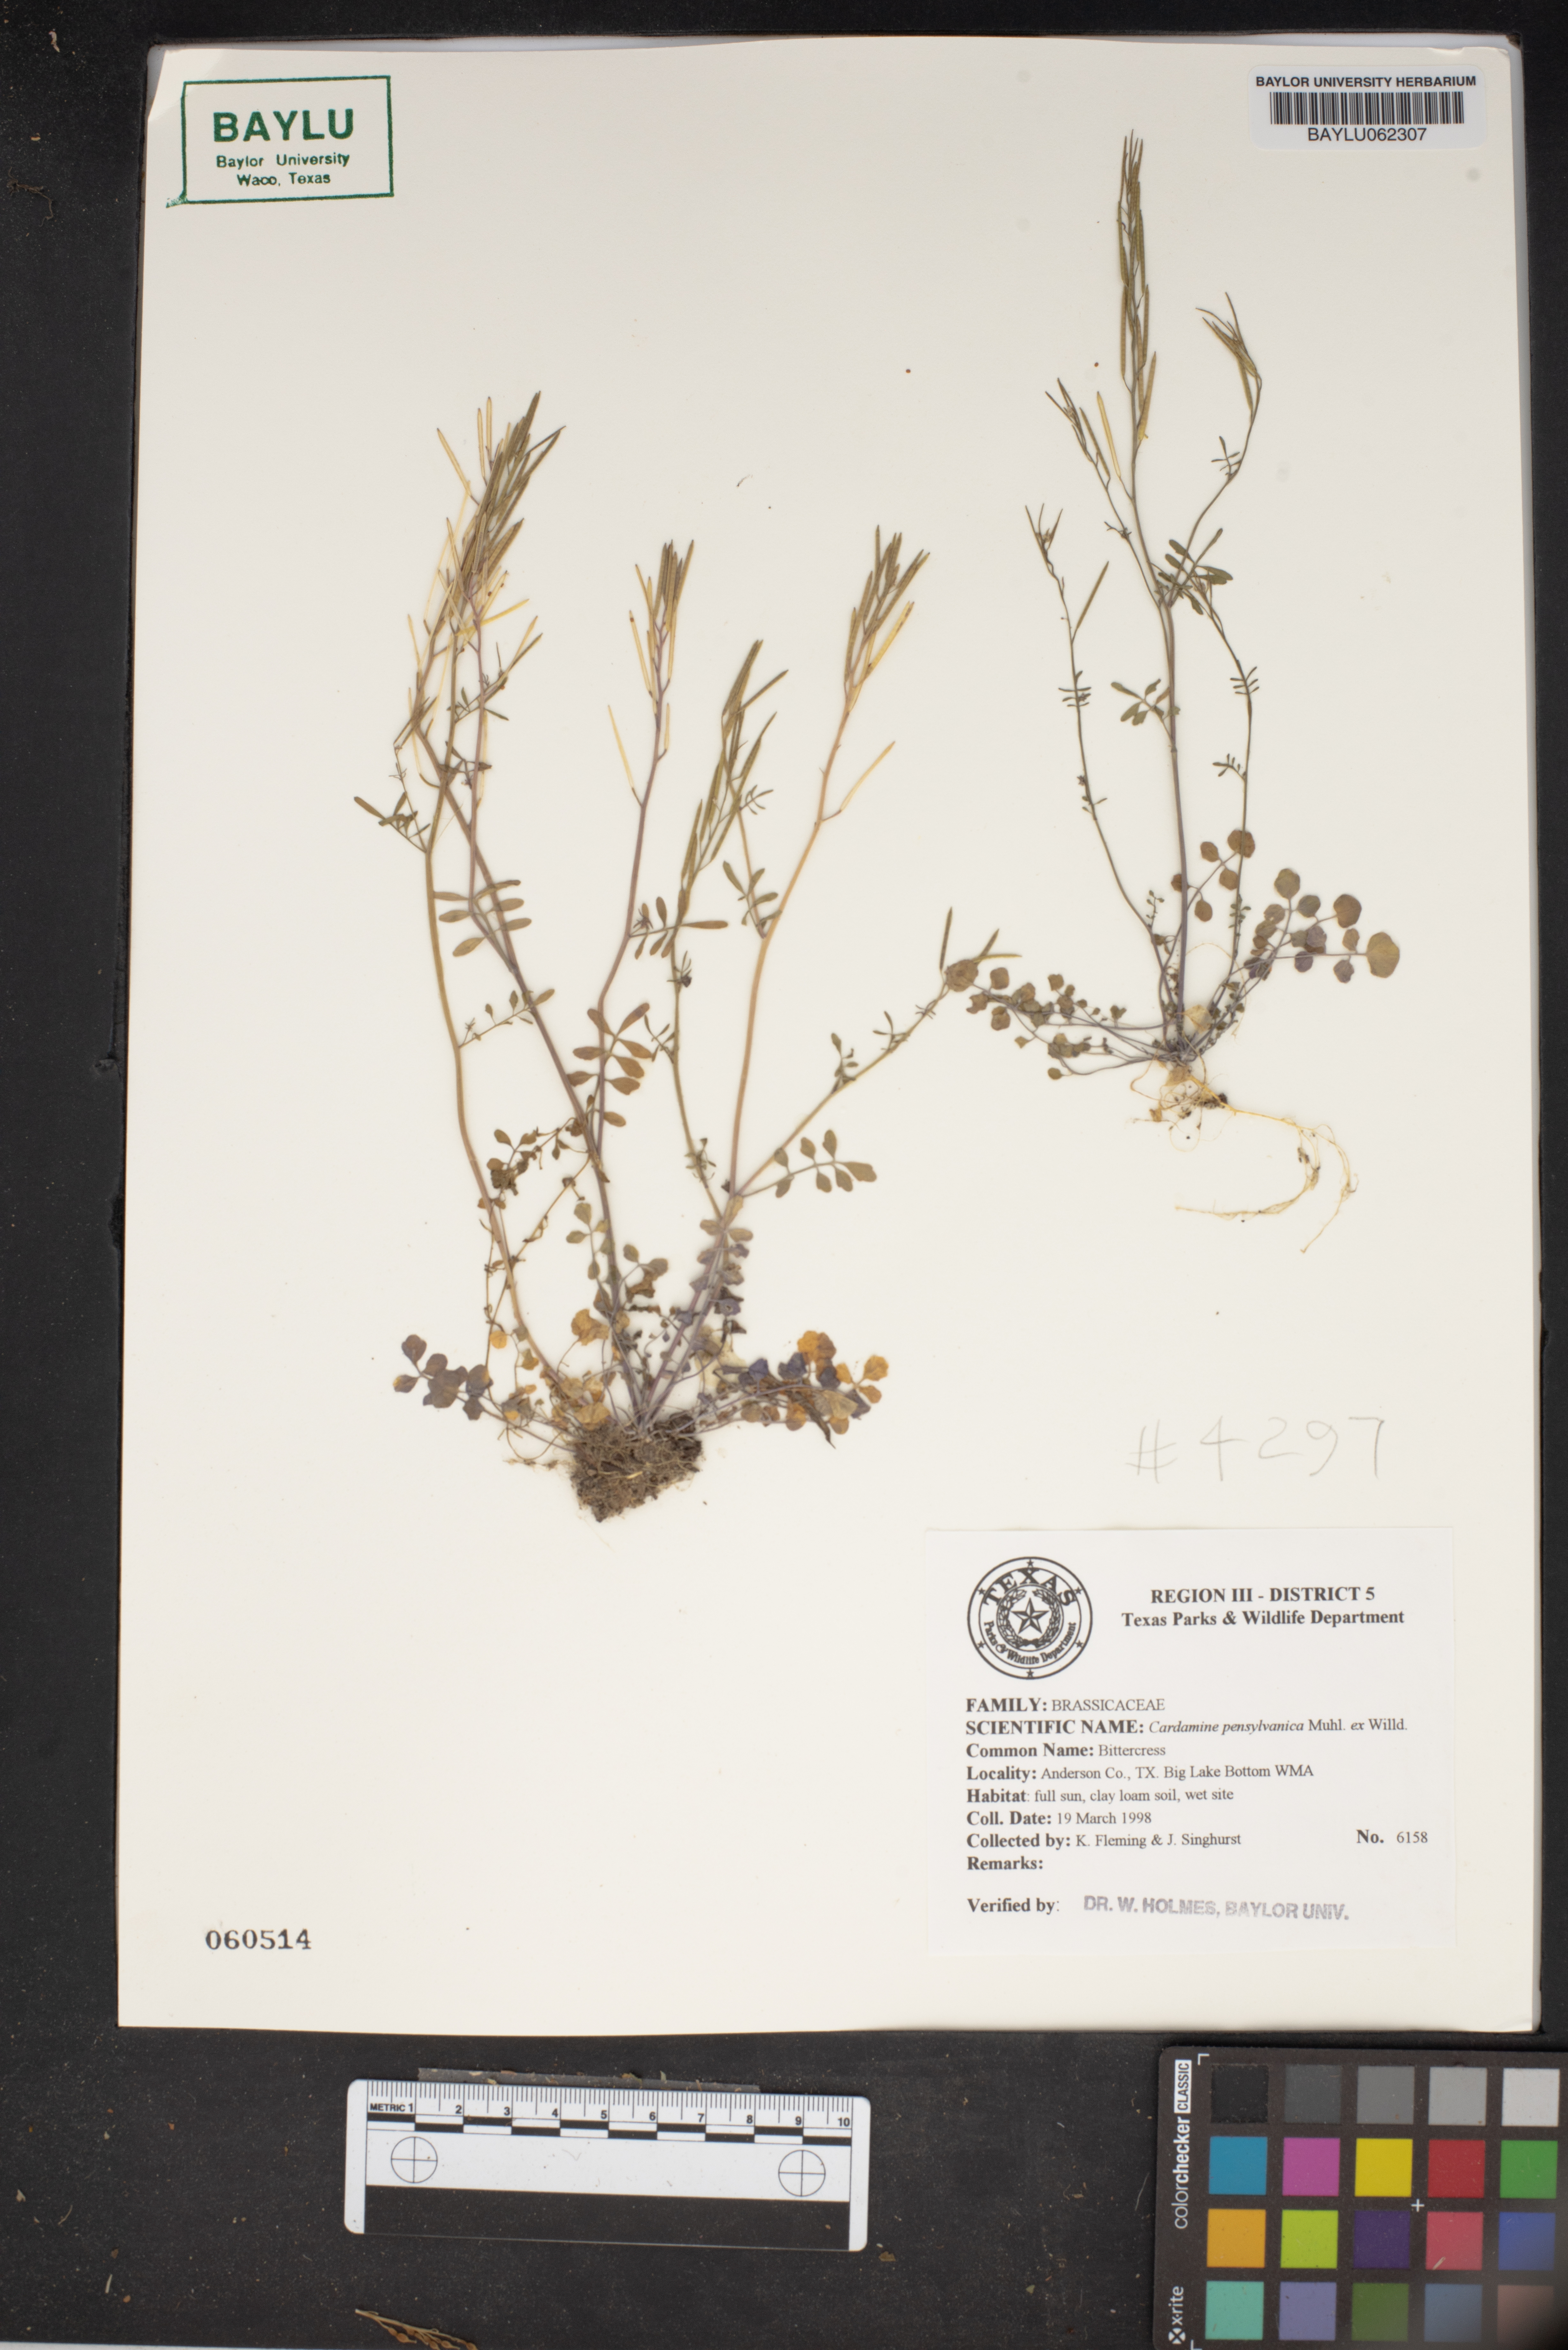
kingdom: Plantae
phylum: Tracheophyta
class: Magnoliopsida
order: Brassicales
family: Brassicaceae
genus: Cardamine
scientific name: Cardamine pensylvanica
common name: Pennsylvania bittercress
